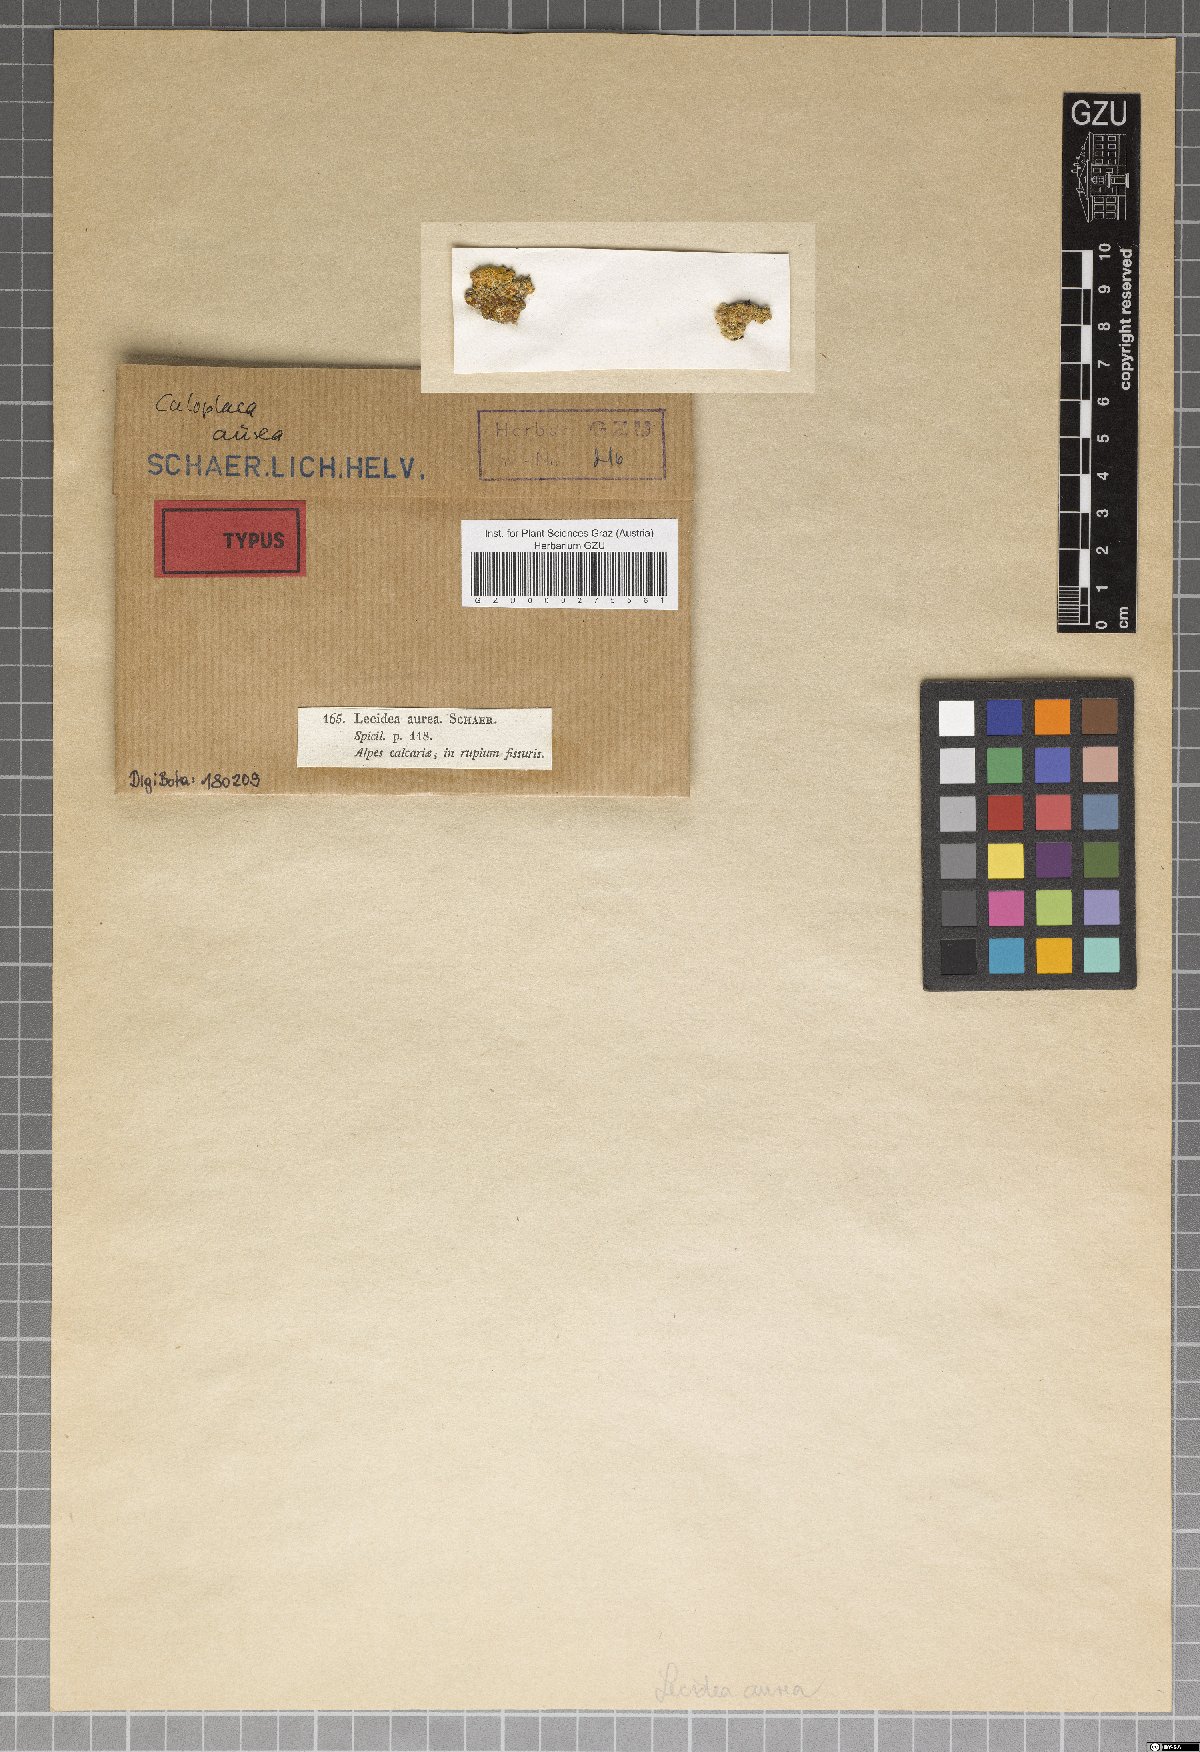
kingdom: Fungi
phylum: Ascomycota
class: Lecanoromycetes
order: Teloschistales
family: Teloschistaceae
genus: Caloplaca
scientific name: Caloplaca aurea
